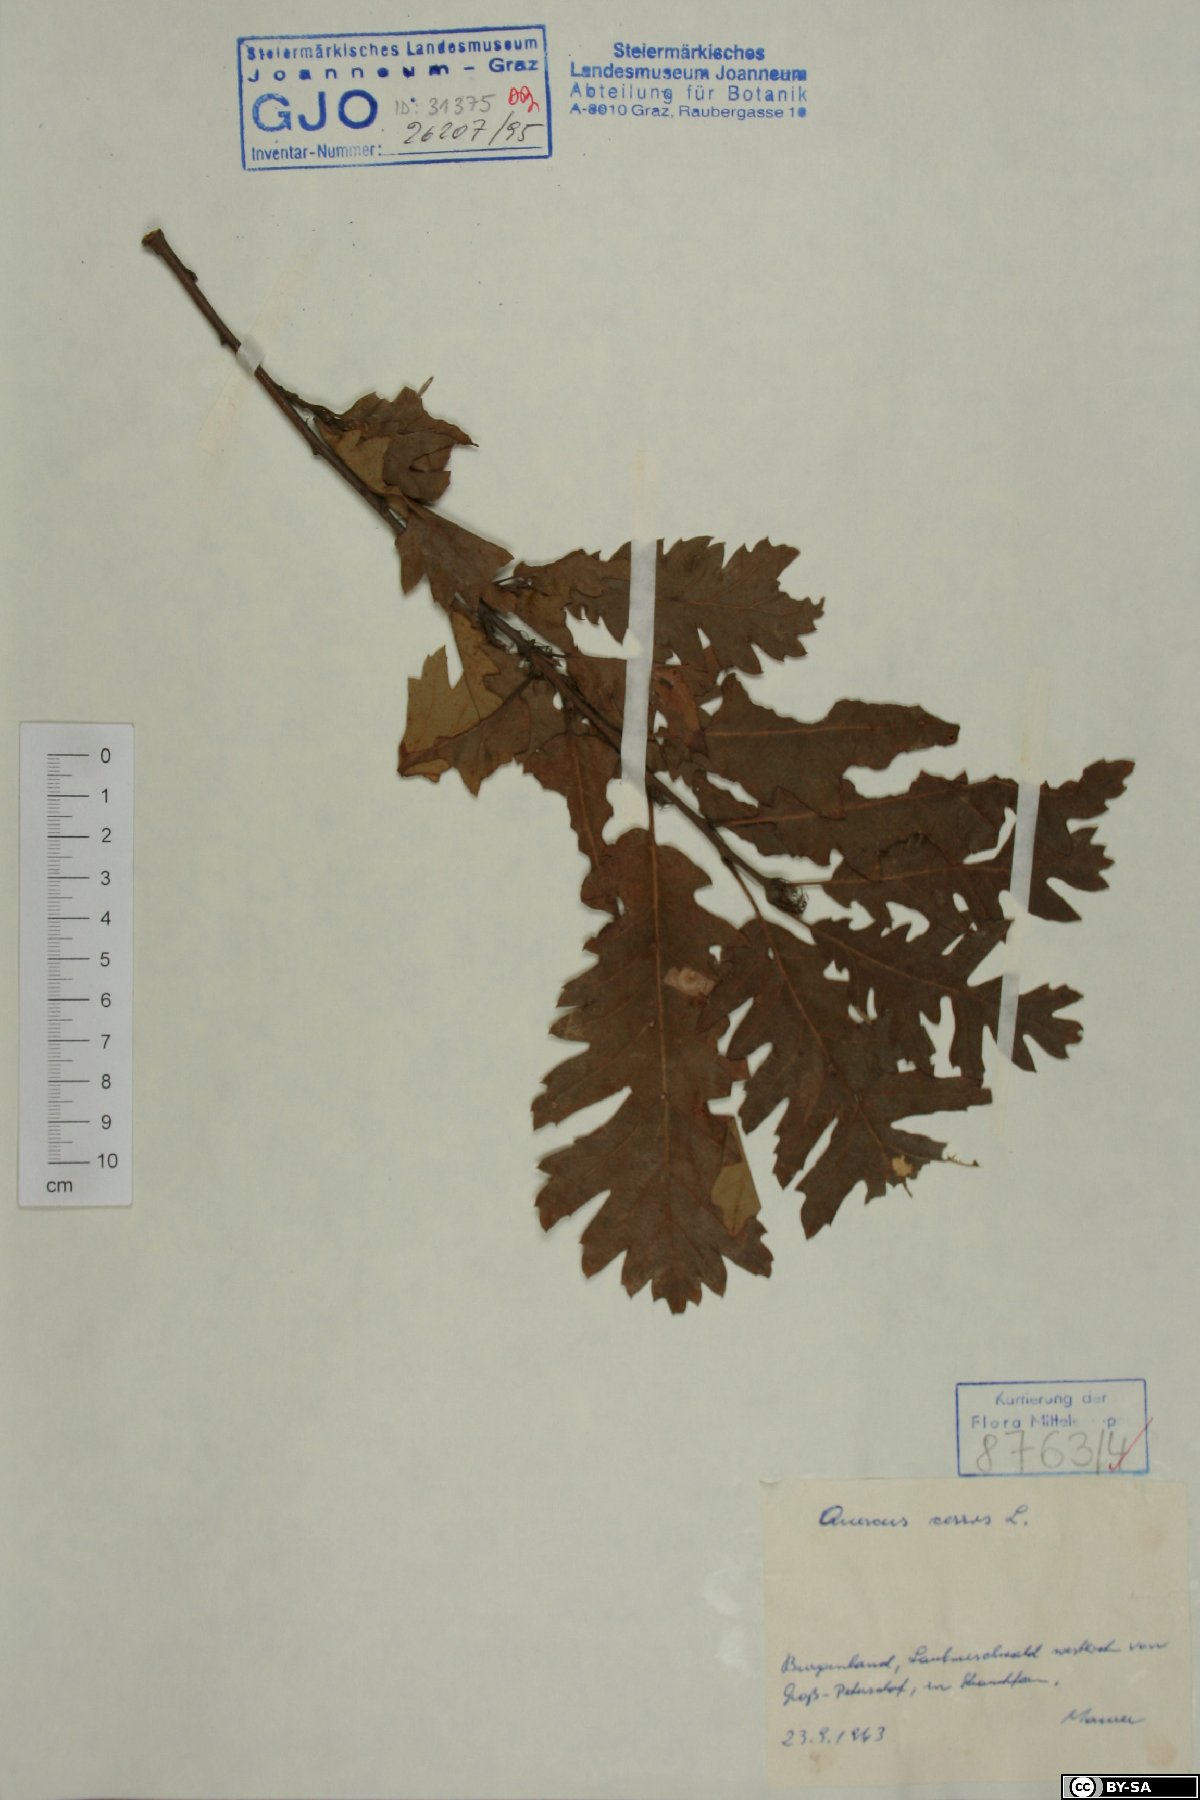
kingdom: Plantae
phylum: Tracheophyta
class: Magnoliopsida
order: Fagales
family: Fagaceae
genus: Quercus
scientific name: Quercus cerris
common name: Turkey oak
